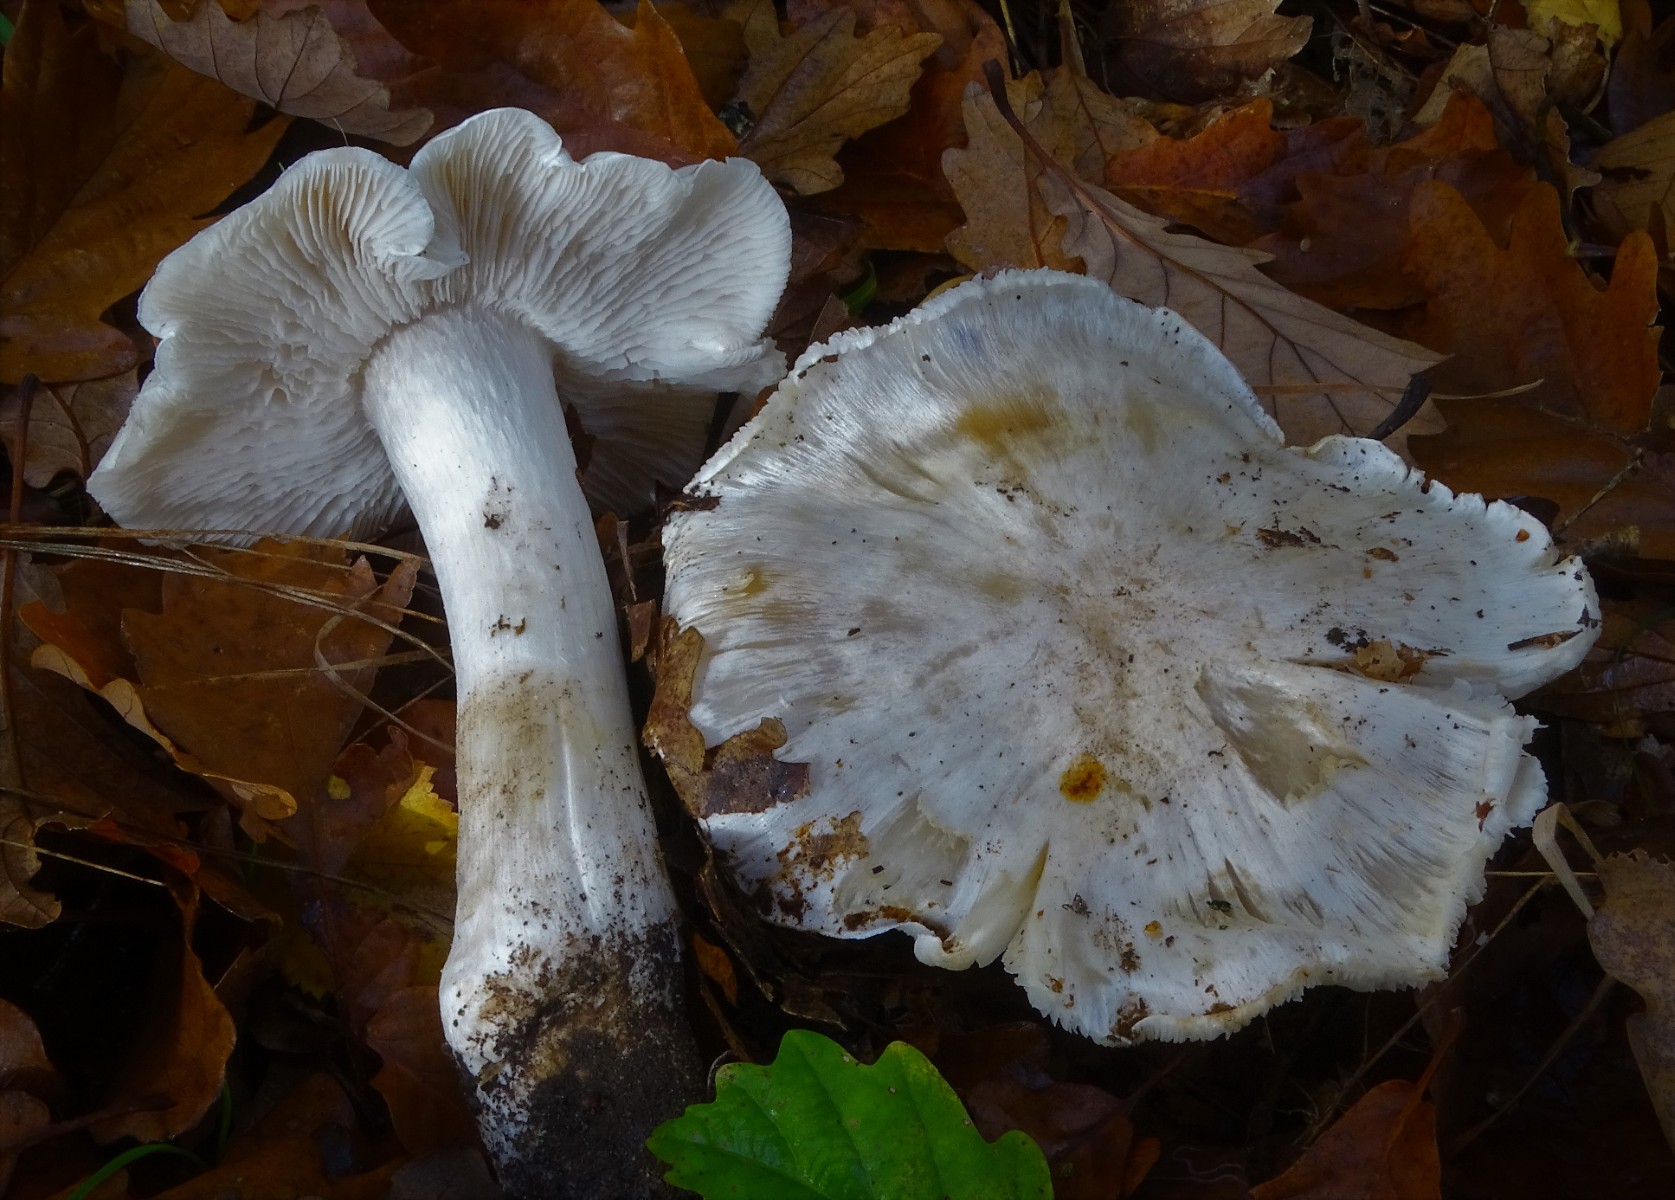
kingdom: Fungi
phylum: Basidiomycota
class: Agaricomycetes
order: Agaricales
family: Tricholomataceae
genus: Tricholoma
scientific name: Tricholoma columbetta
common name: silke-ridderhat
